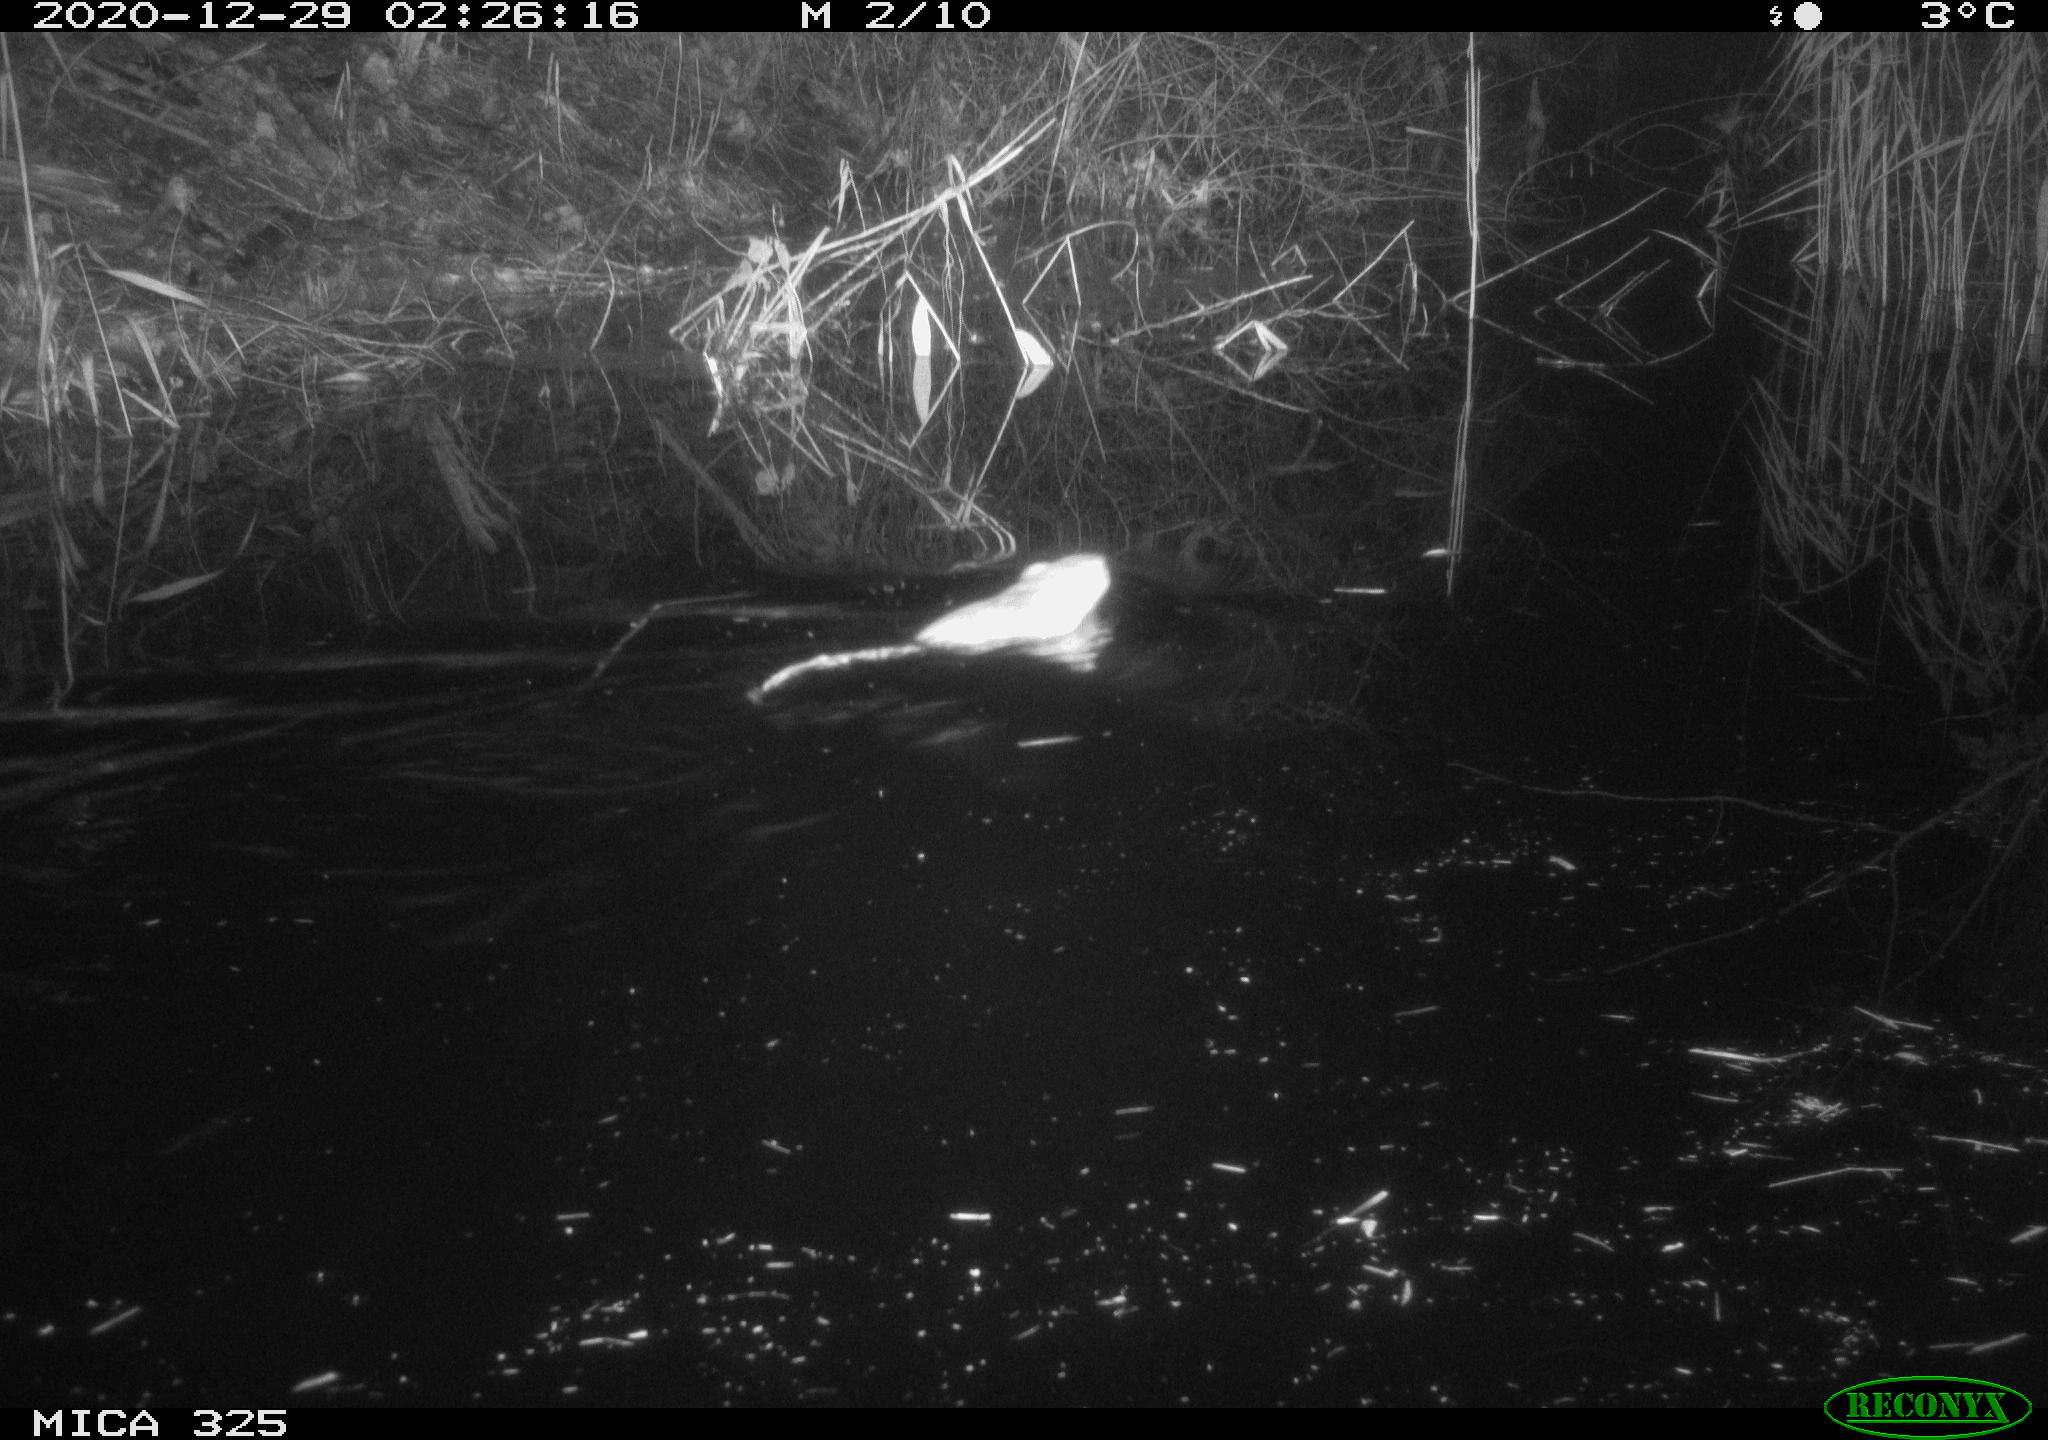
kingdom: Animalia
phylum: Chordata
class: Mammalia
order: Rodentia
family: Cricetidae
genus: Ondatra
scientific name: Ondatra zibethicus
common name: Muskrat
